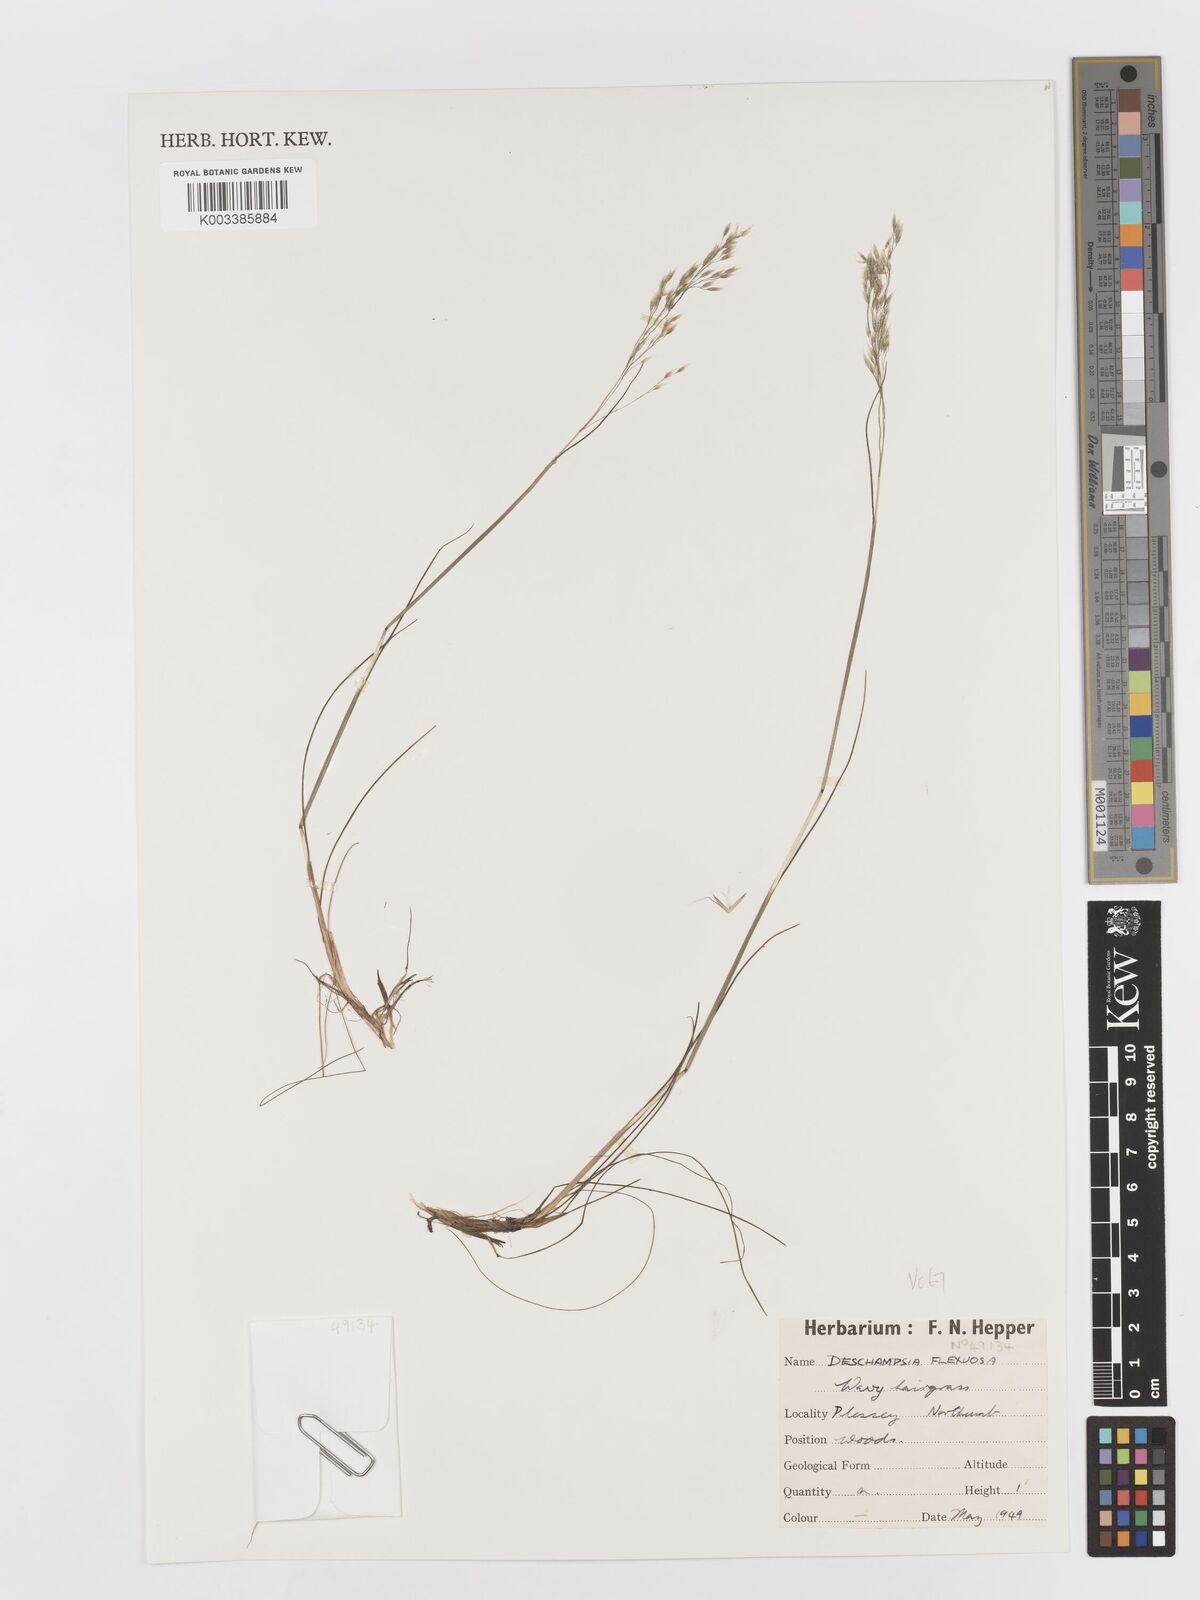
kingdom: Plantae
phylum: Tracheophyta
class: Liliopsida
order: Poales
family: Poaceae
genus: Avenella
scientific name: Avenella flexuosa
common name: Wavy hairgrass
